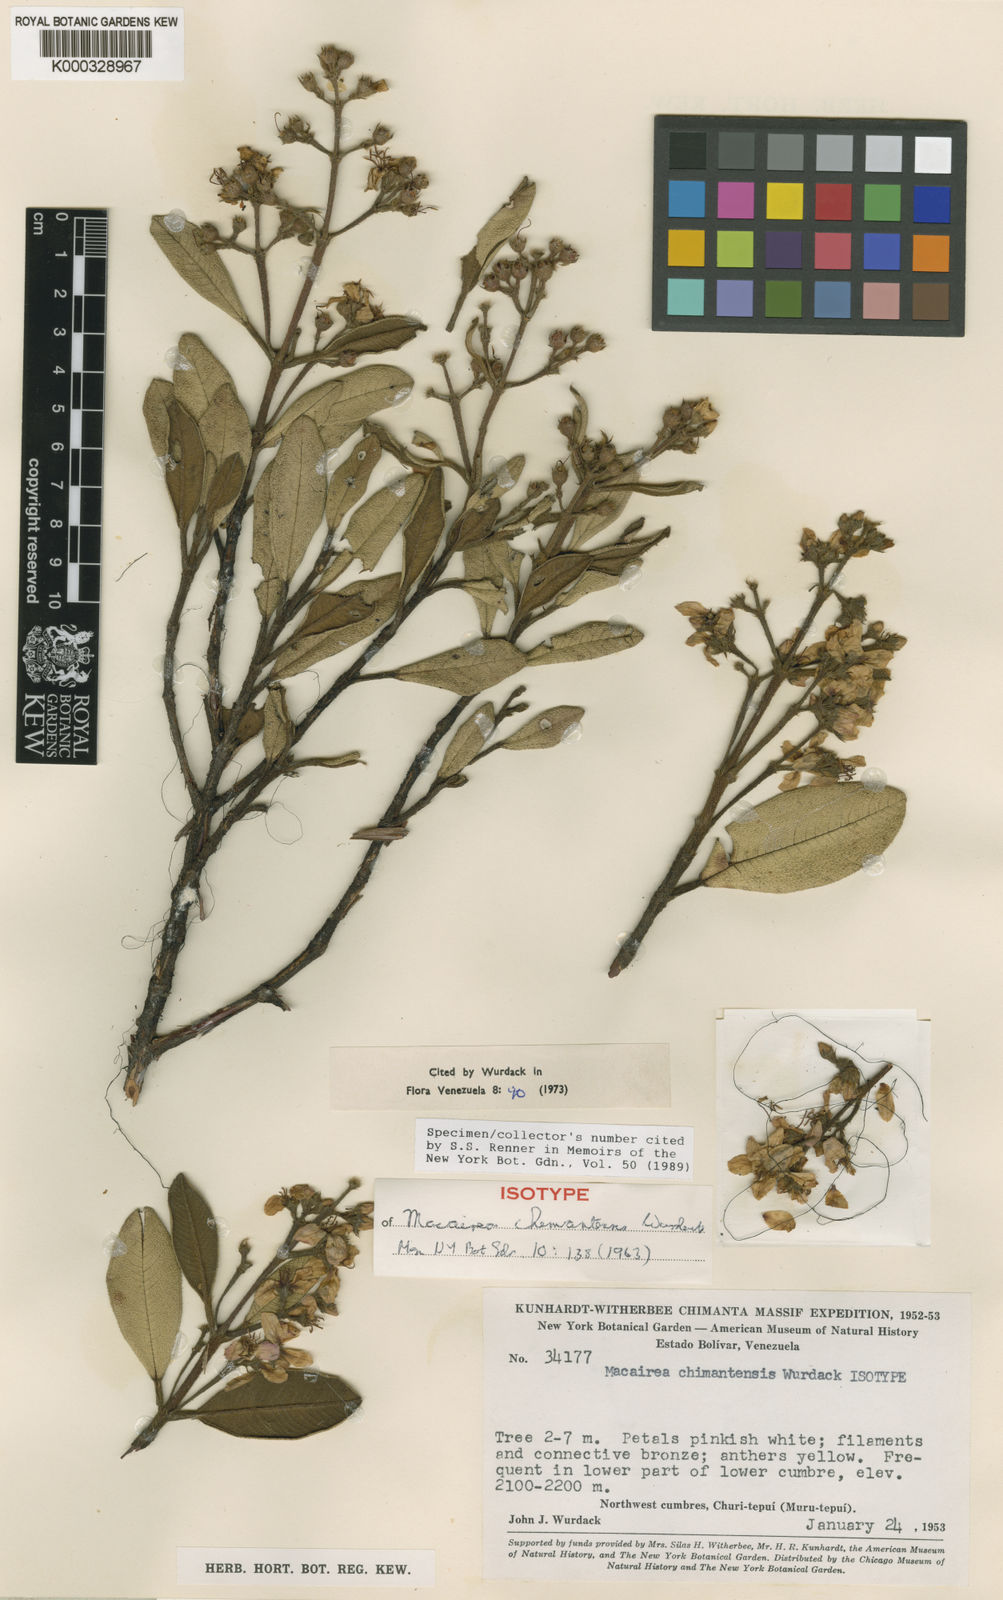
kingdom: Plantae
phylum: Tracheophyta
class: Magnoliopsida
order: Myrtales
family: Melastomataceae
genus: Macairea
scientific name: Macairea chimantensis
